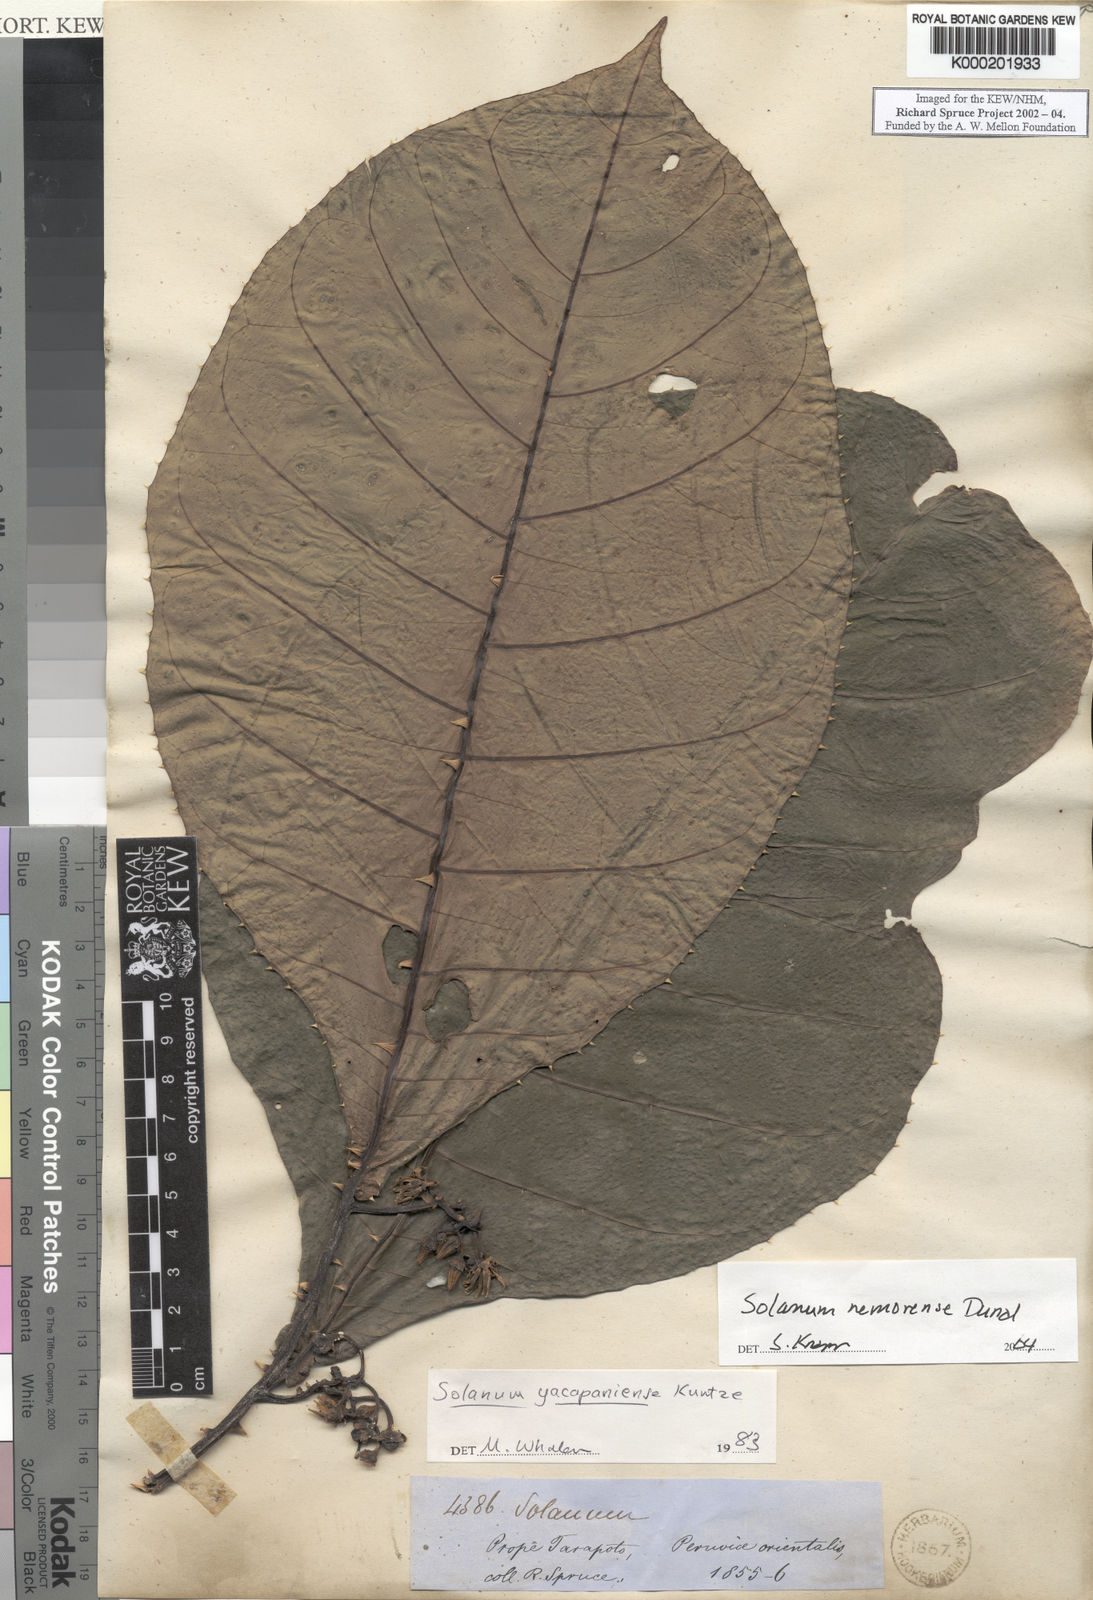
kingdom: Plantae
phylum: Tracheophyta
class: Magnoliopsida
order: Solanales
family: Solanaceae
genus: Solanum
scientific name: Solanum nemorense
